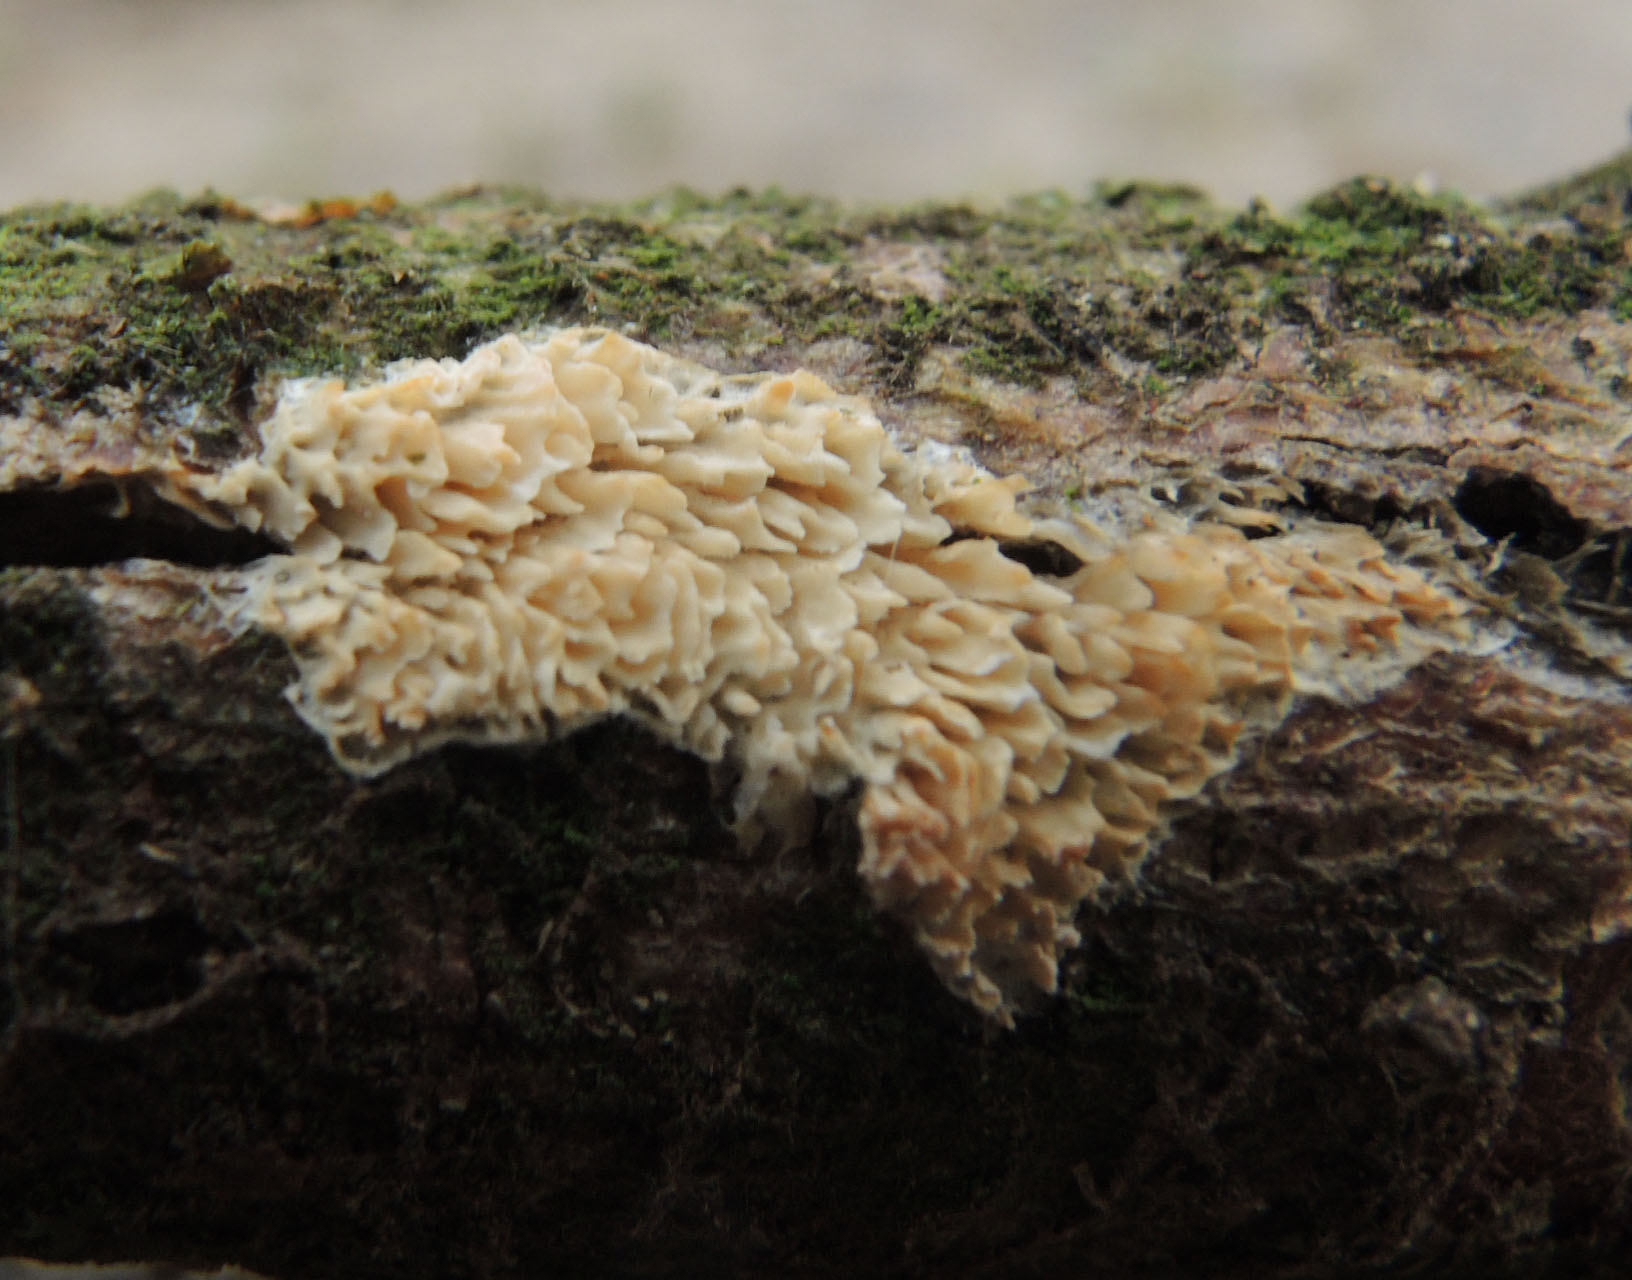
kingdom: Fungi
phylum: Basidiomycota
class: Agaricomycetes
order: Polyporales
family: Fomitopsidaceae
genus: Brunneoporus
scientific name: Brunneoporus kuzyanus
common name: brunlig sejporesvamp
